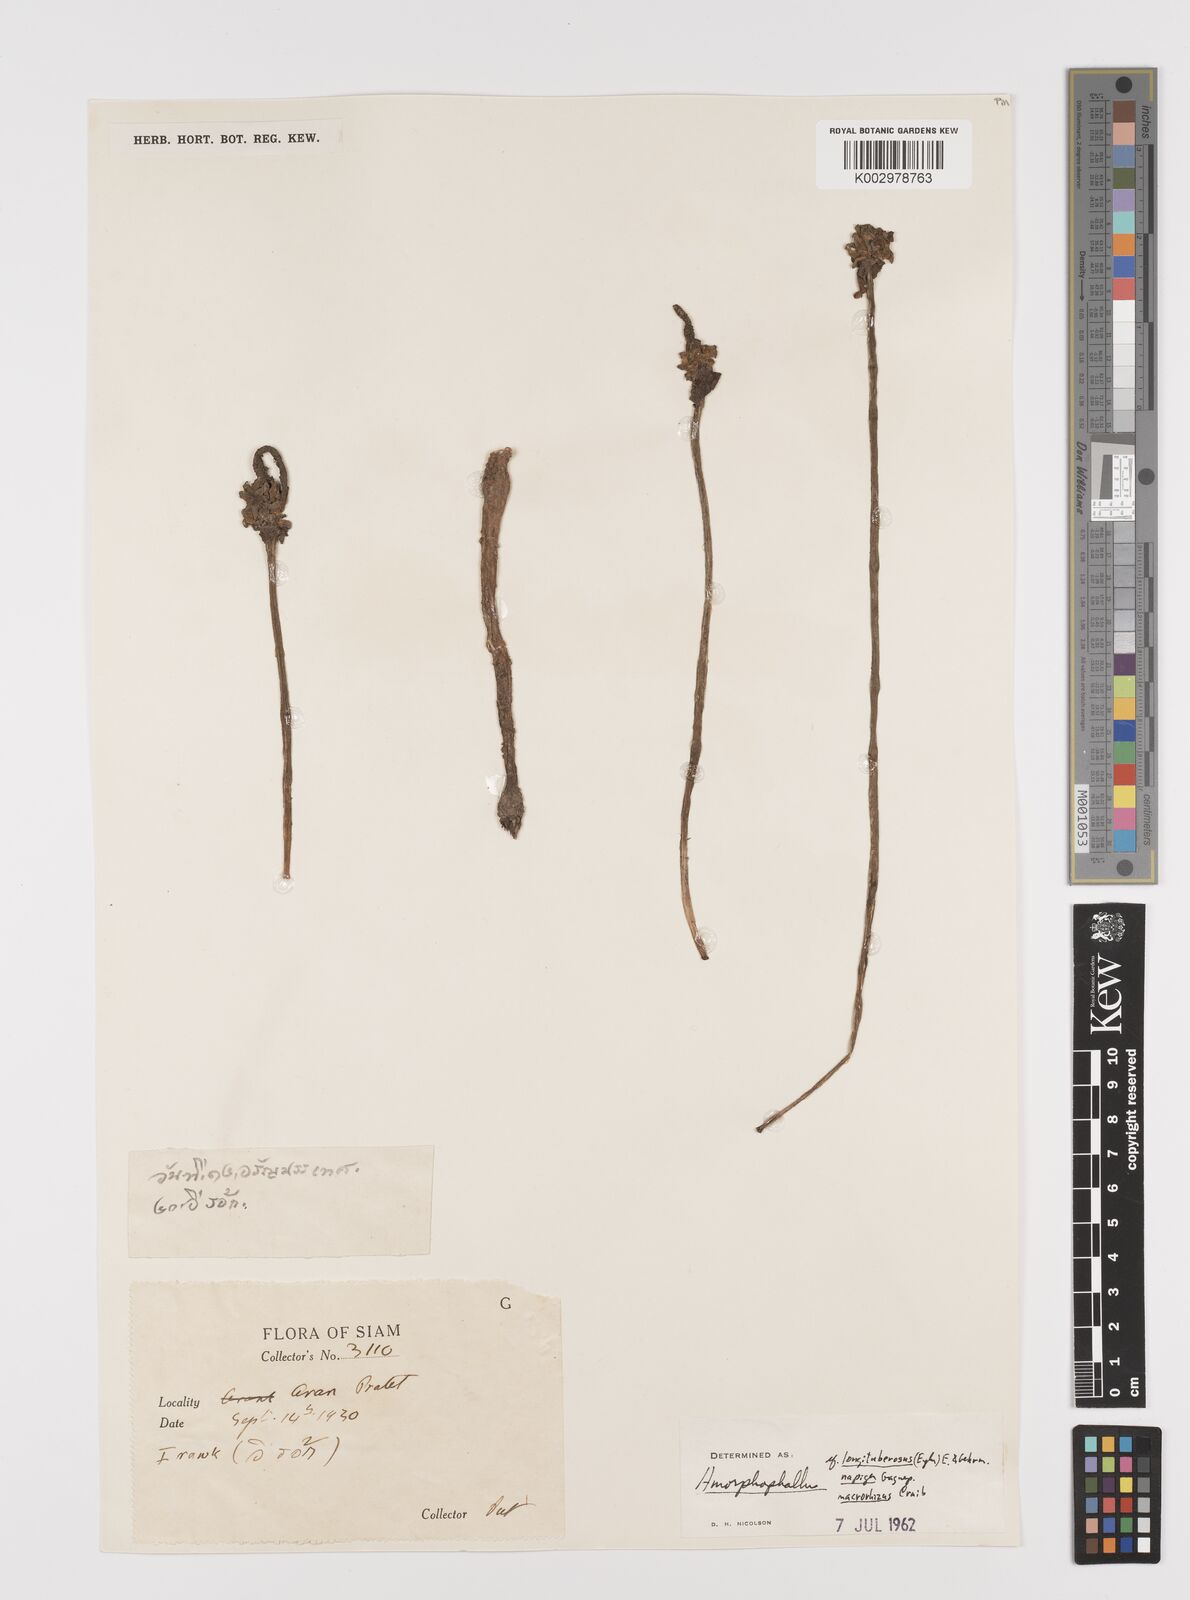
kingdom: Plantae
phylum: Tracheophyta
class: Liliopsida
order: Alismatales
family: Araceae
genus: Amorphophallus
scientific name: Amorphophallus
